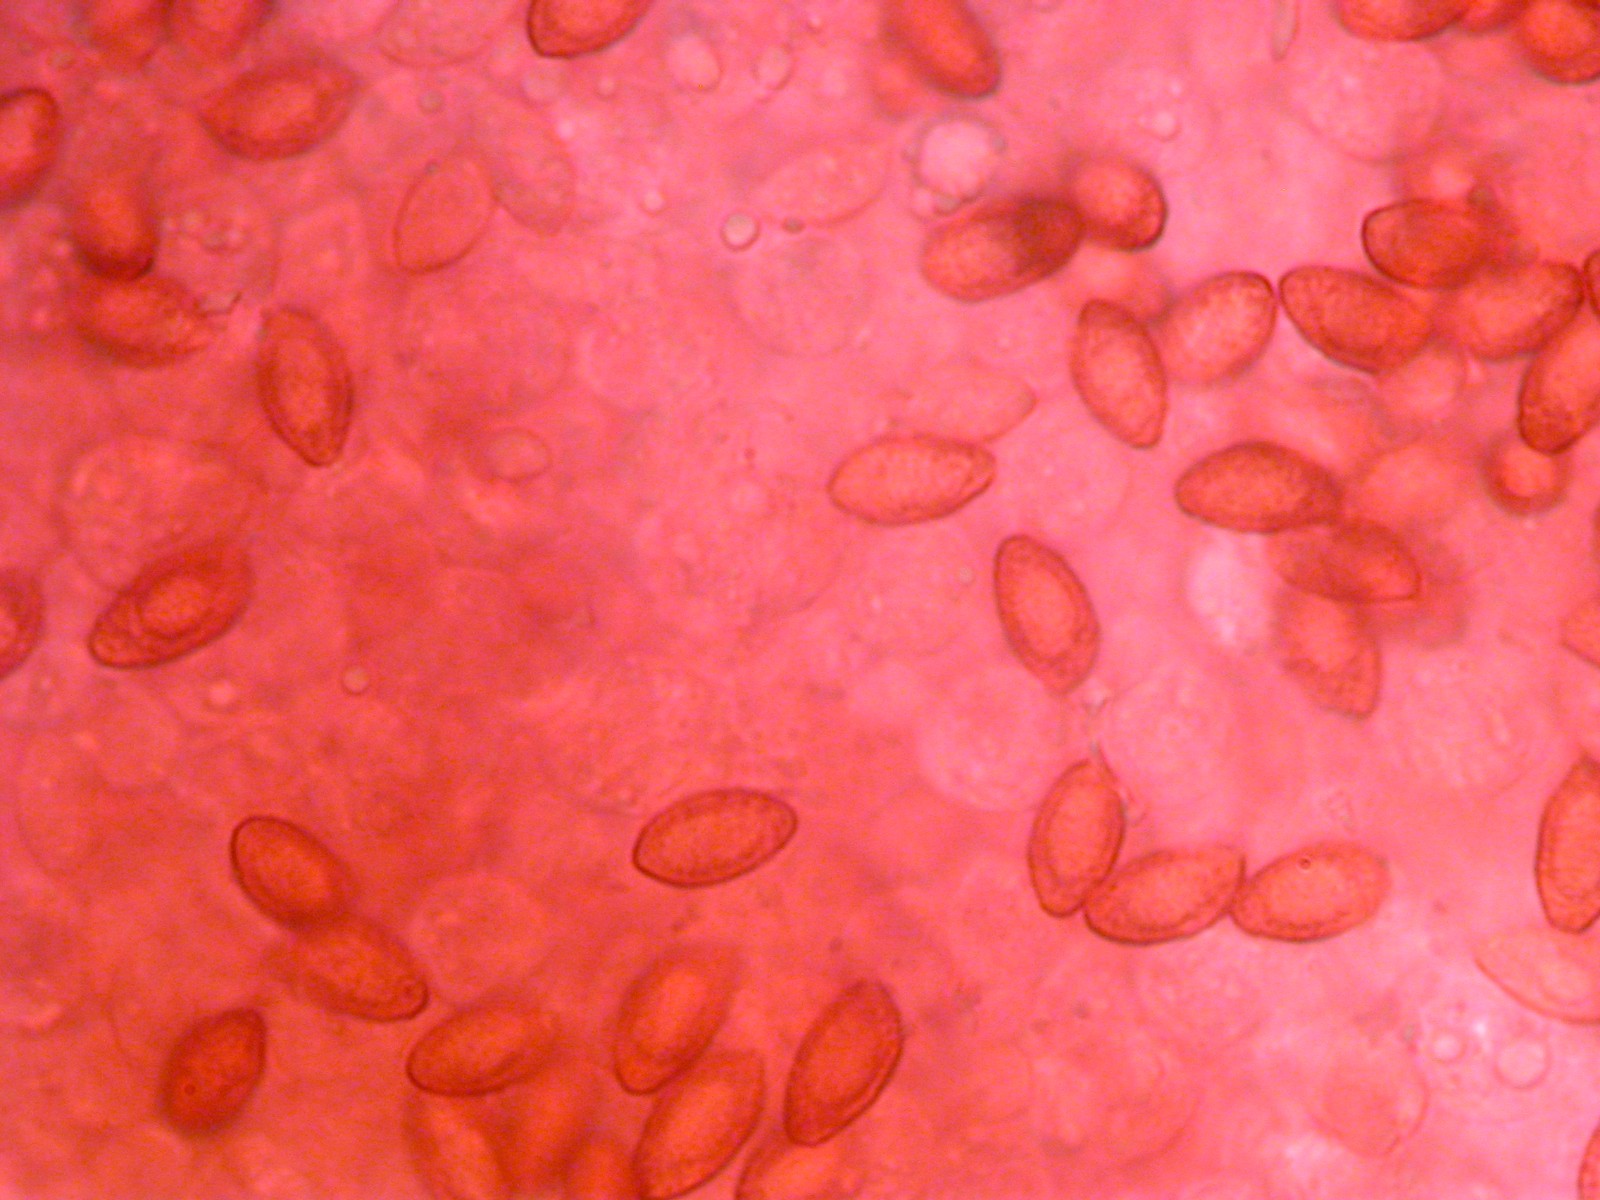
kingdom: Fungi
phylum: Basidiomycota
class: Agaricomycetes
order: Agaricales
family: Cortinariaceae
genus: Cortinarius
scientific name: Cortinarius desertorum
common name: skær slørhat
